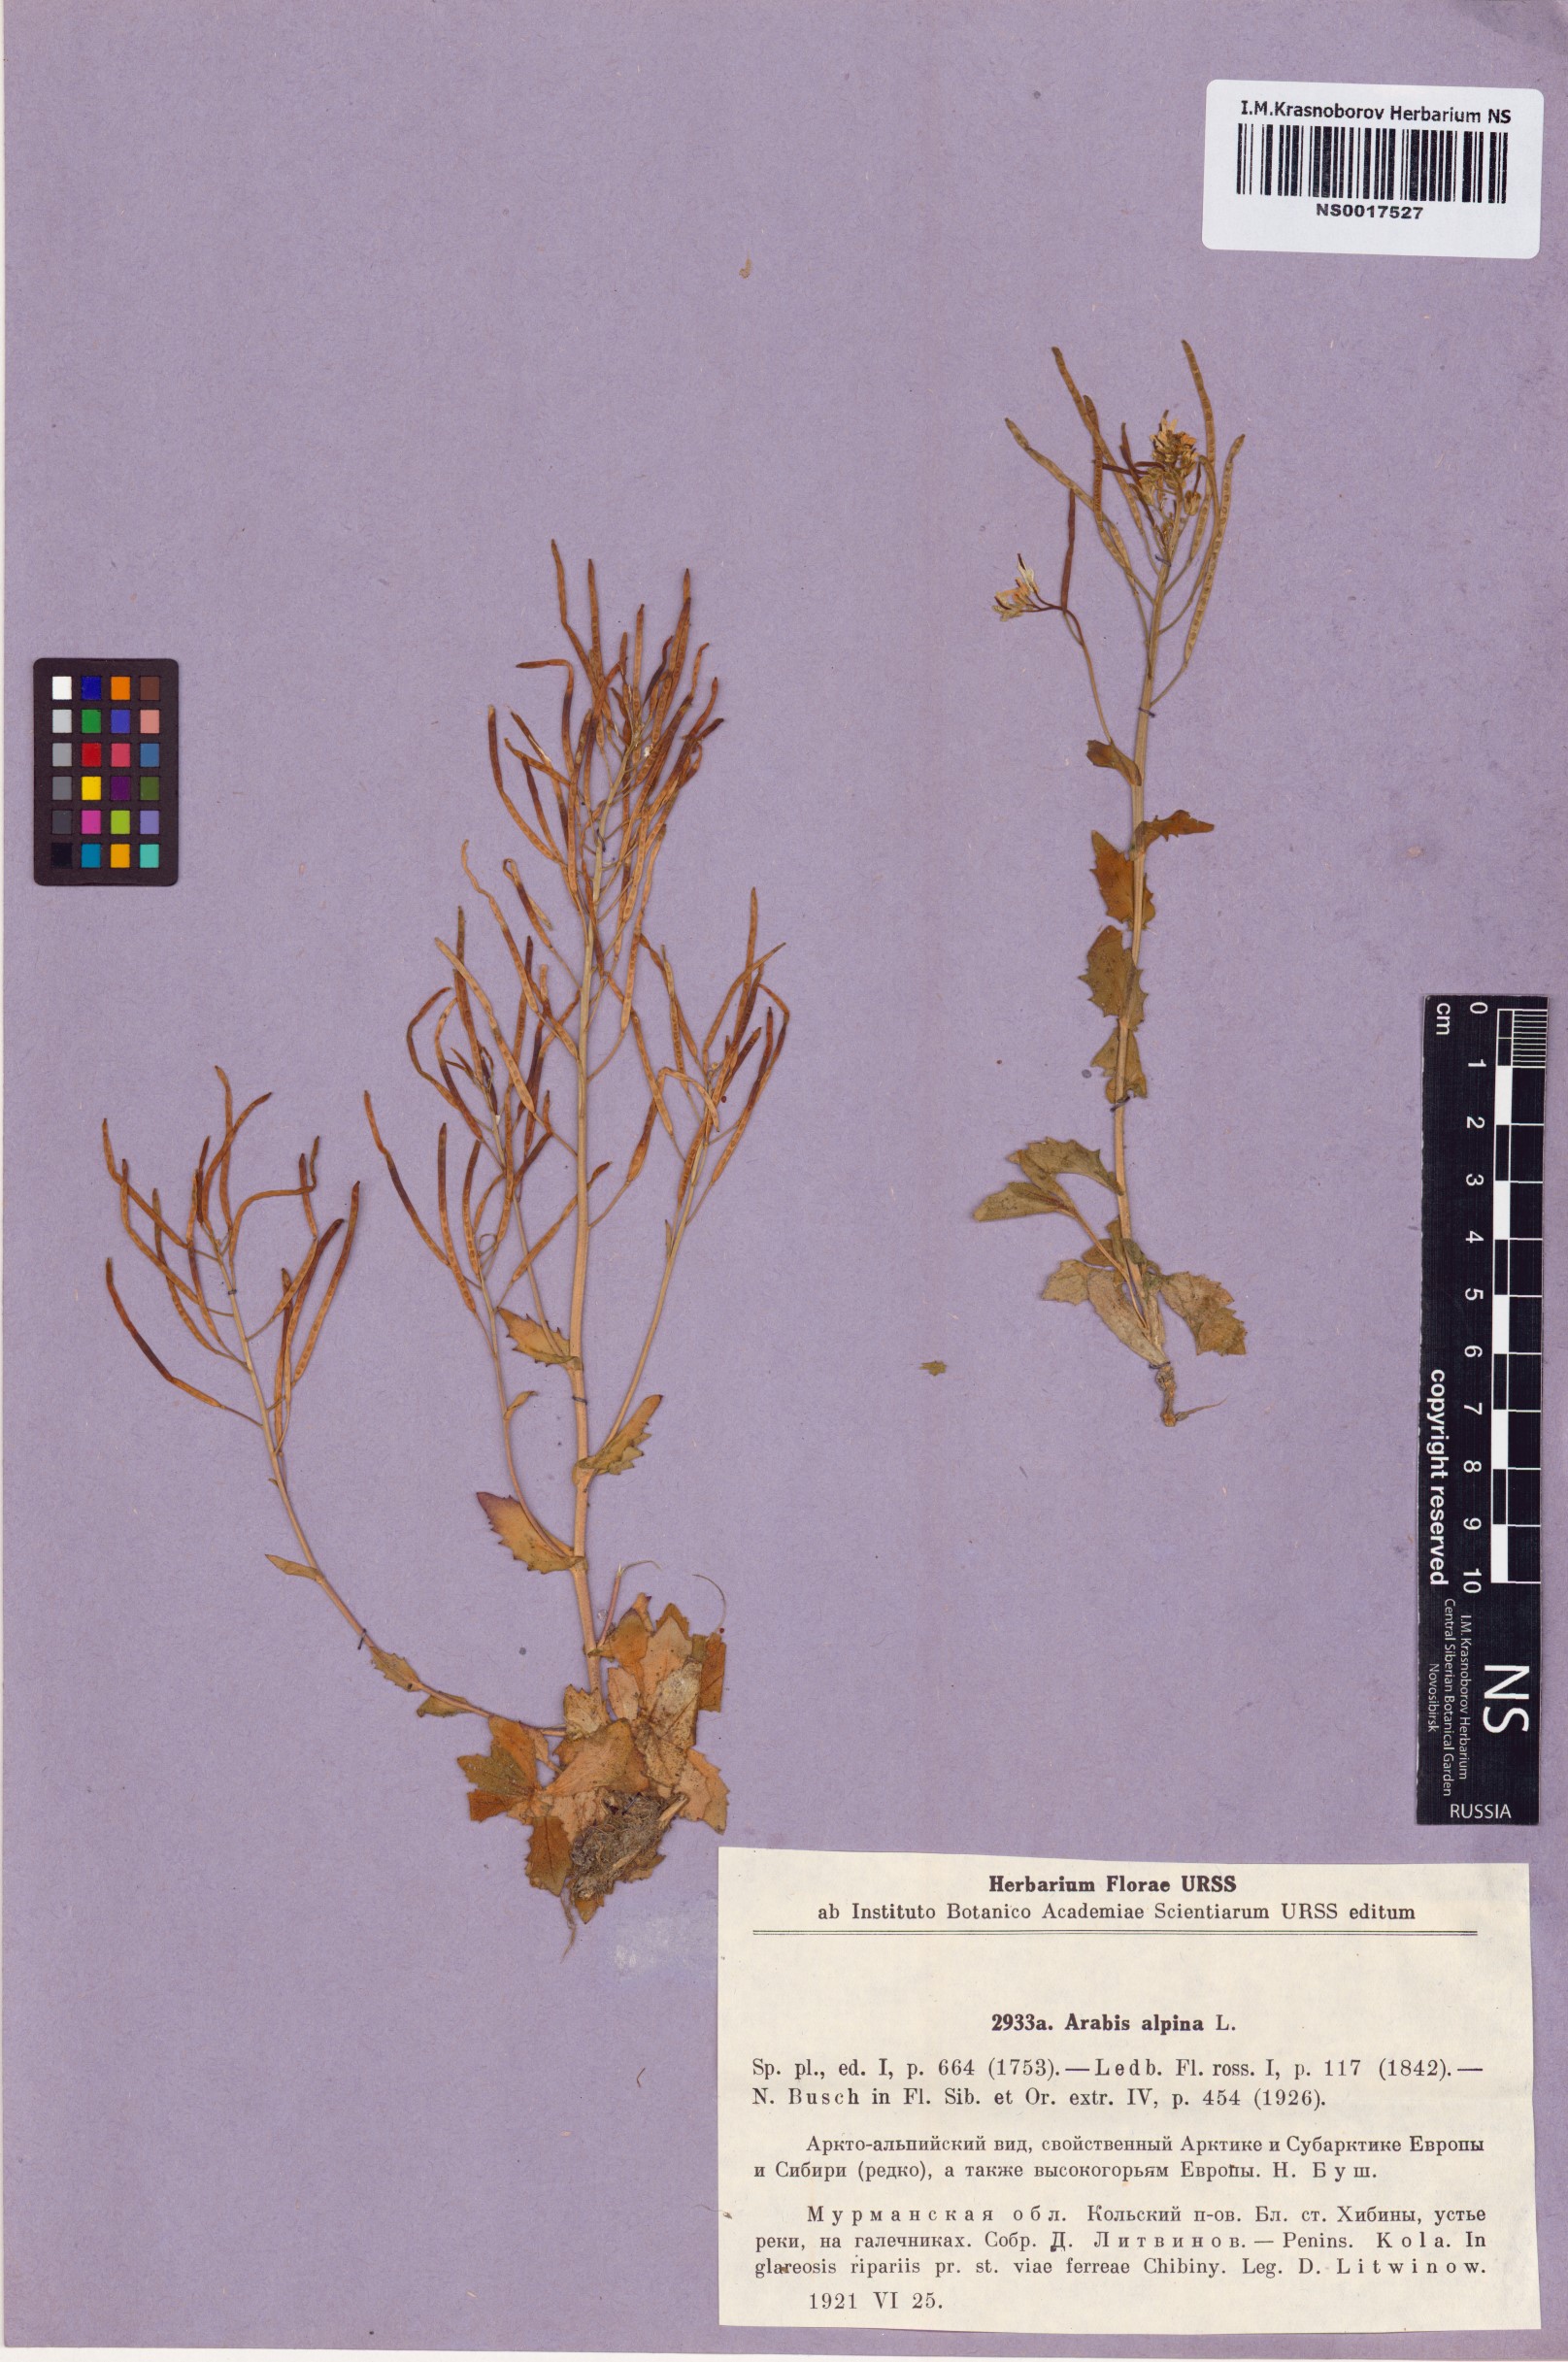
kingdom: Plantae
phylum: Tracheophyta
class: Magnoliopsida
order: Brassicales
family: Brassicaceae
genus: Arabis
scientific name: Arabis alpina
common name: Alpine rock-cress
